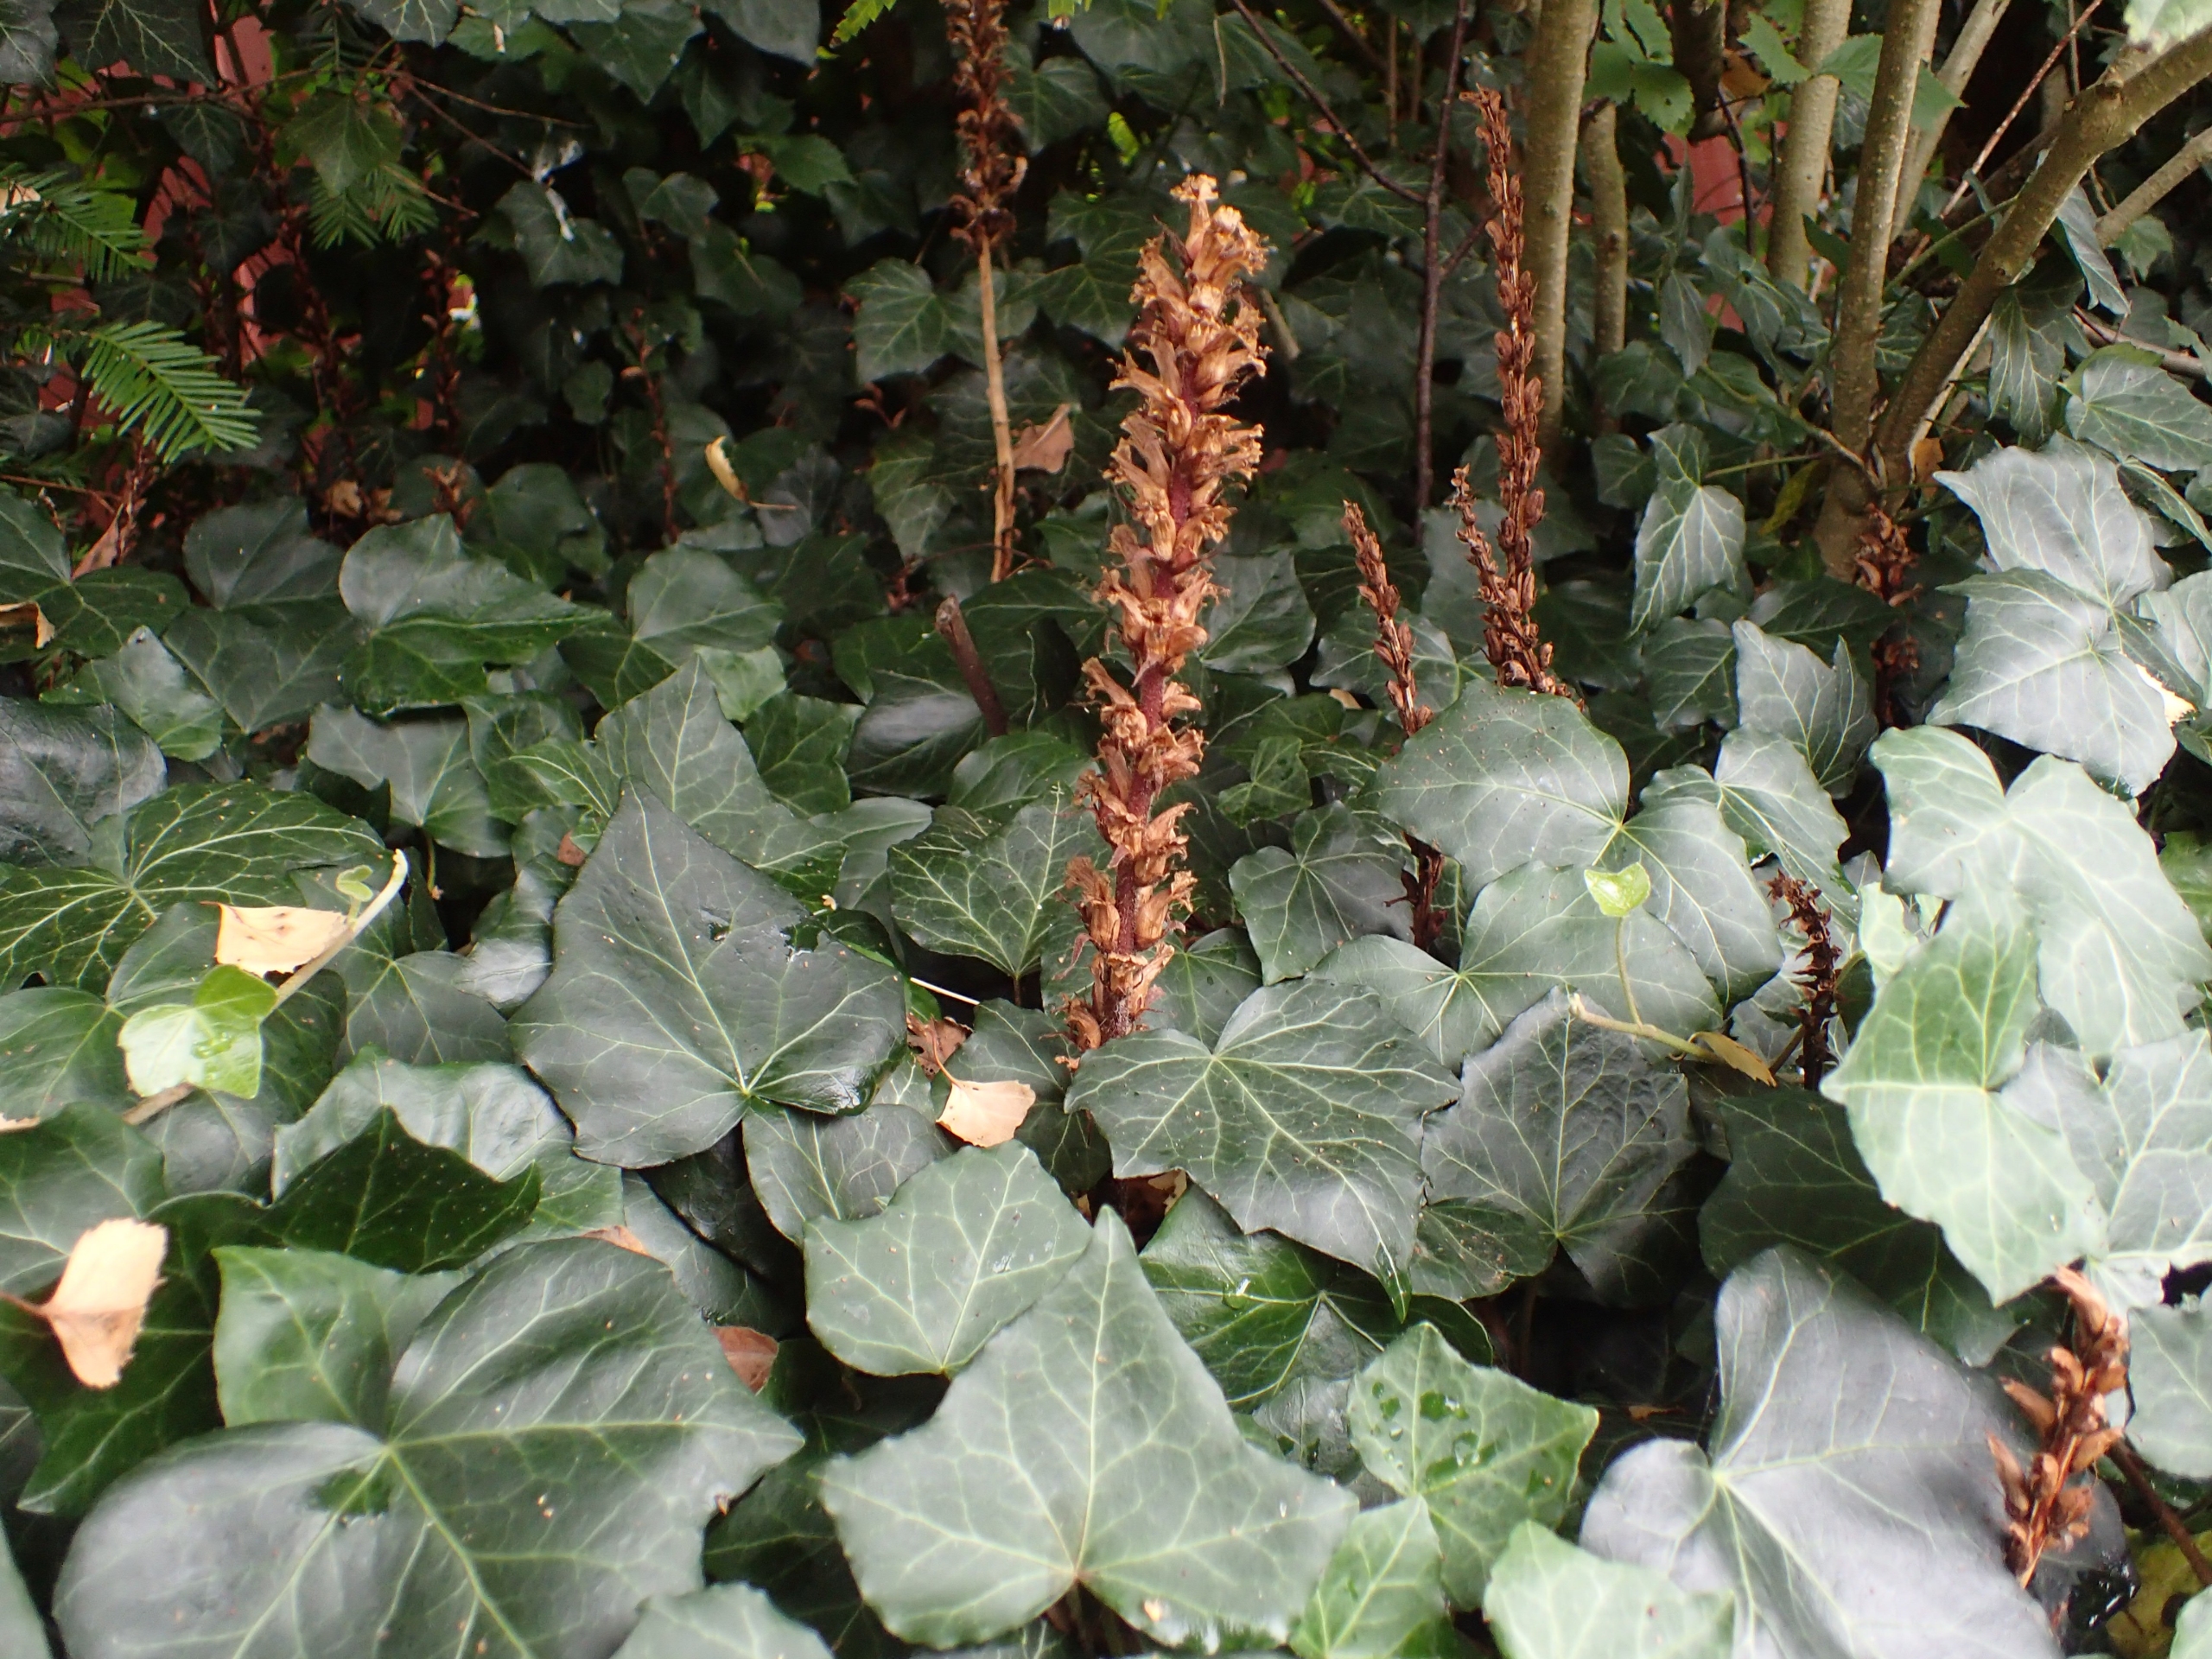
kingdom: Plantae
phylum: Tracheophyta
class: Magnoliopsida
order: Lamiales
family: Orobanchaceae
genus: Orobanche
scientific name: Orobanche hederae
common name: Vedbend-gyvelkvæler
